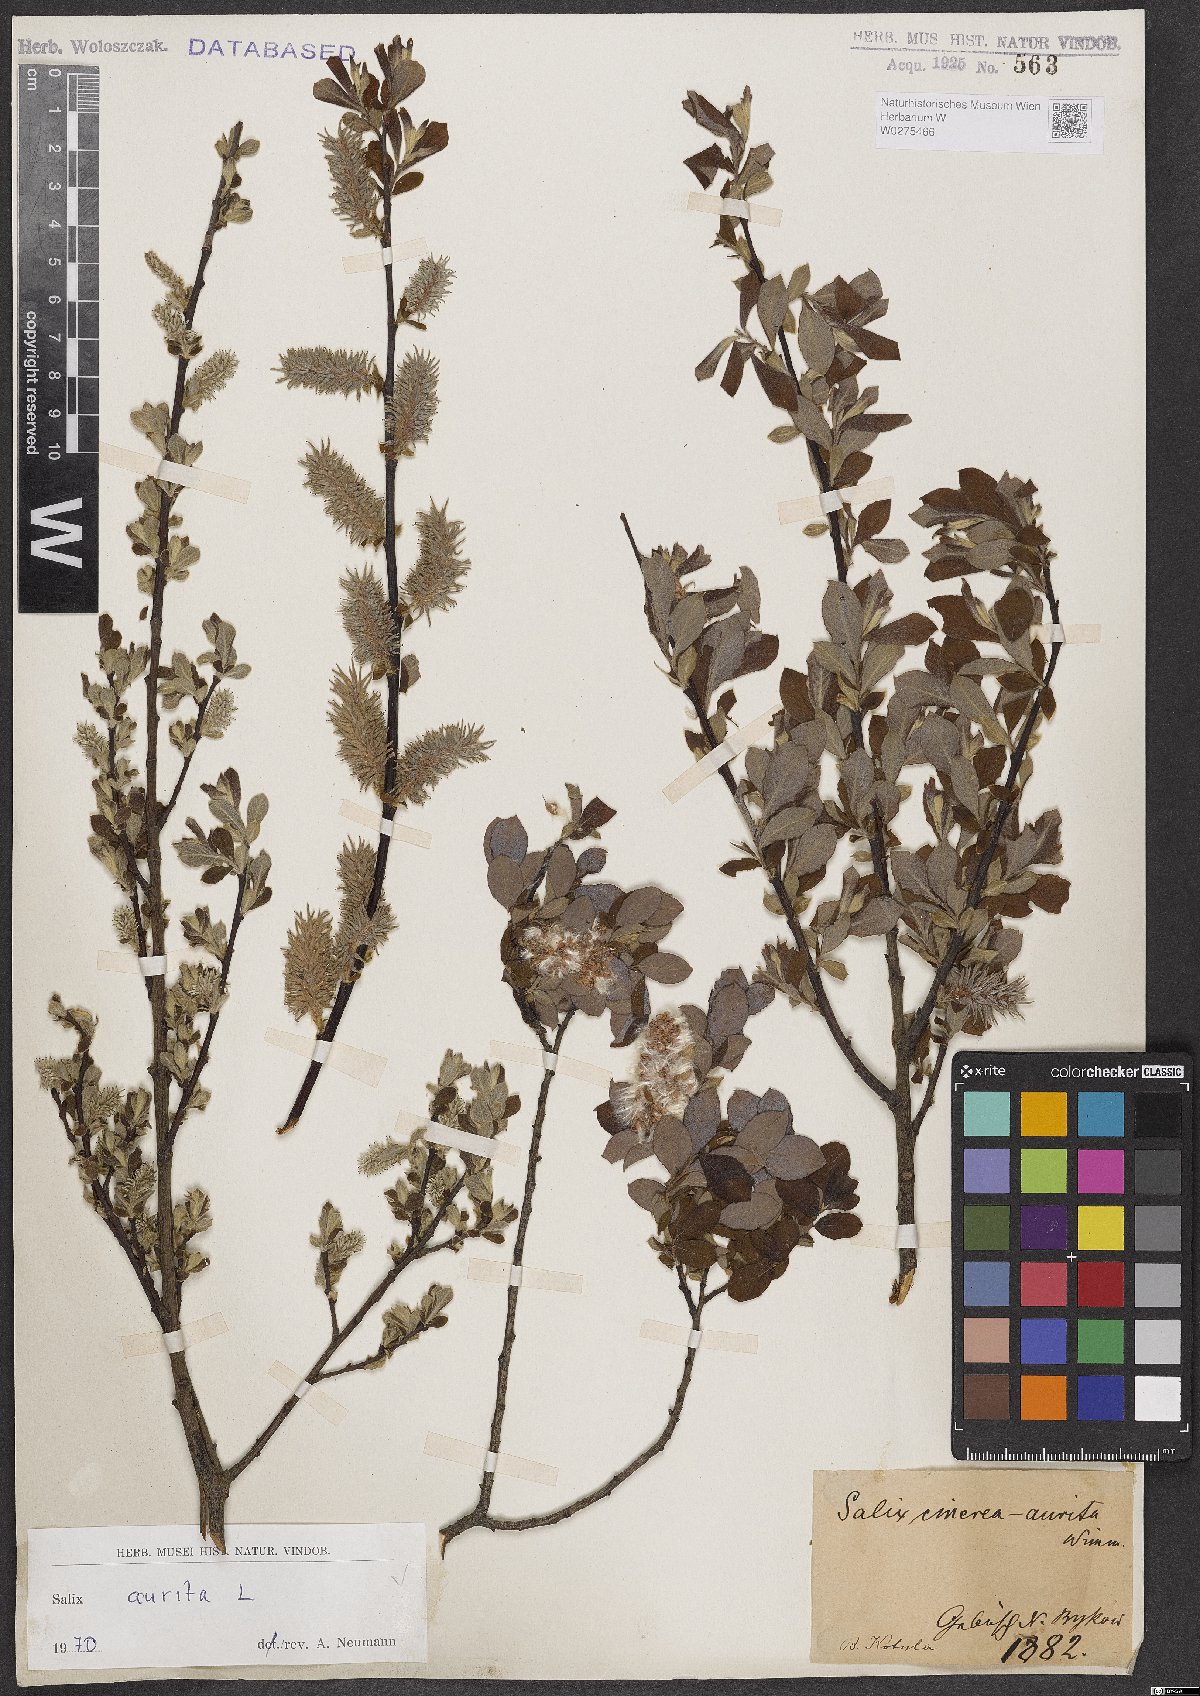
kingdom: Plantae
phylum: Tracheophyta
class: Magnoliopsida
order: Malpighiales
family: Salicaceae
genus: Salix
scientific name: Salix aurita
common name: Eared willow
